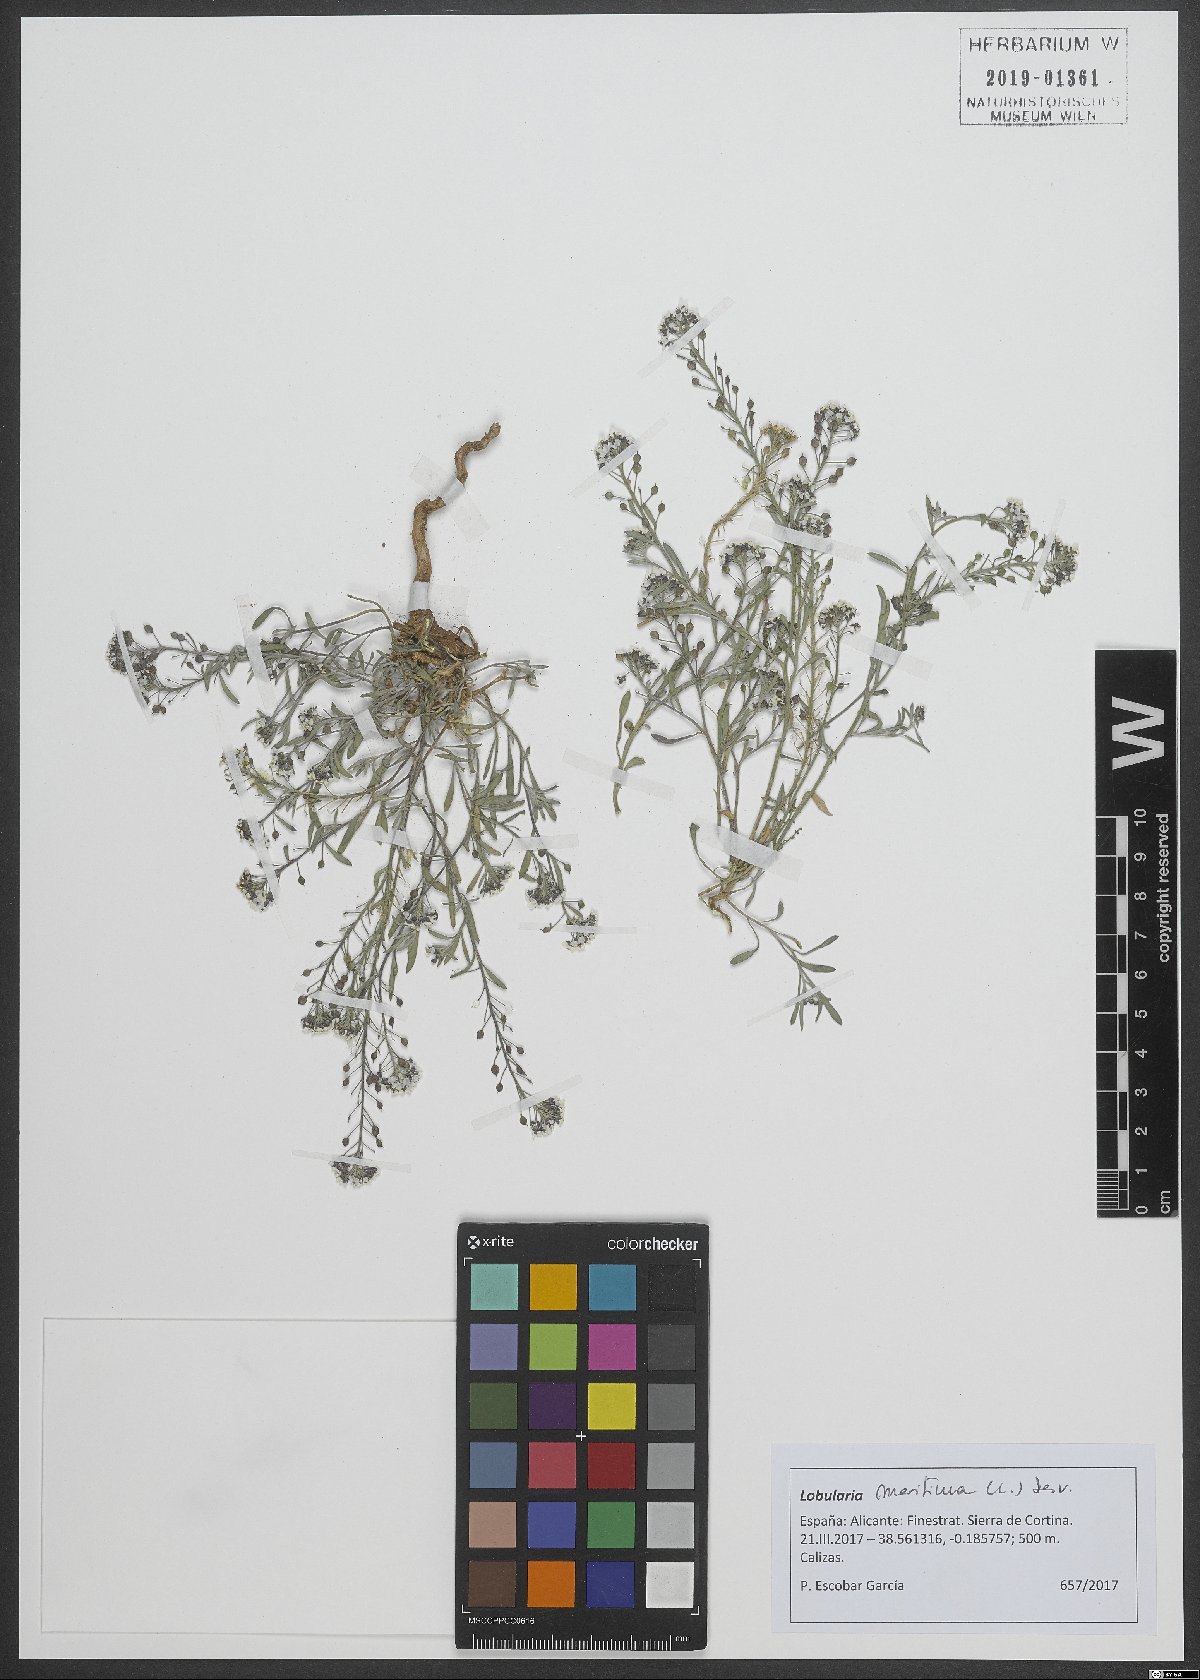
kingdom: Plantae
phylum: Tracheophyta
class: Magnoliopsida
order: Brassicales
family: Brassicaceae
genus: Lobularia
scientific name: Lobularia maritima
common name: Sweet alison
